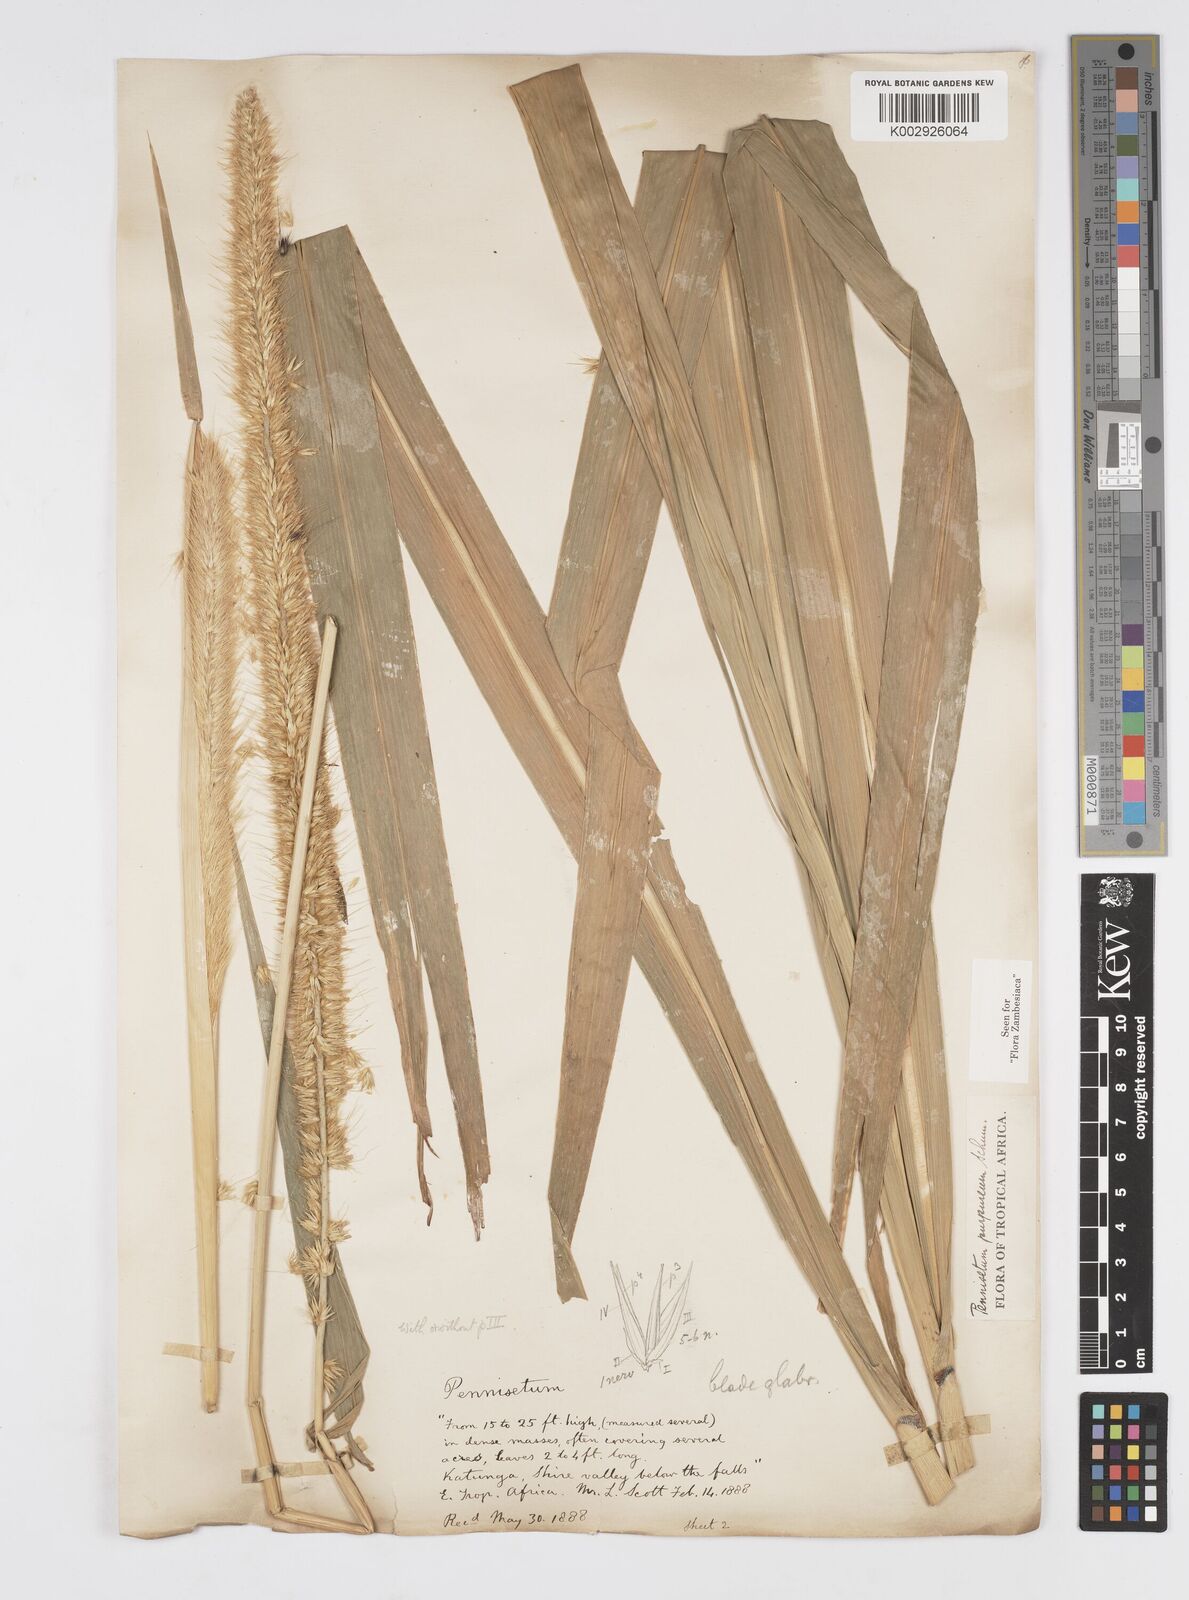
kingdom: Plantae
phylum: Tracheophyta
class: Liliopsida
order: Poales
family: Poaceae
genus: Cenchrus
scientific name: Cenchrus purpureus
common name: Elephant grass
